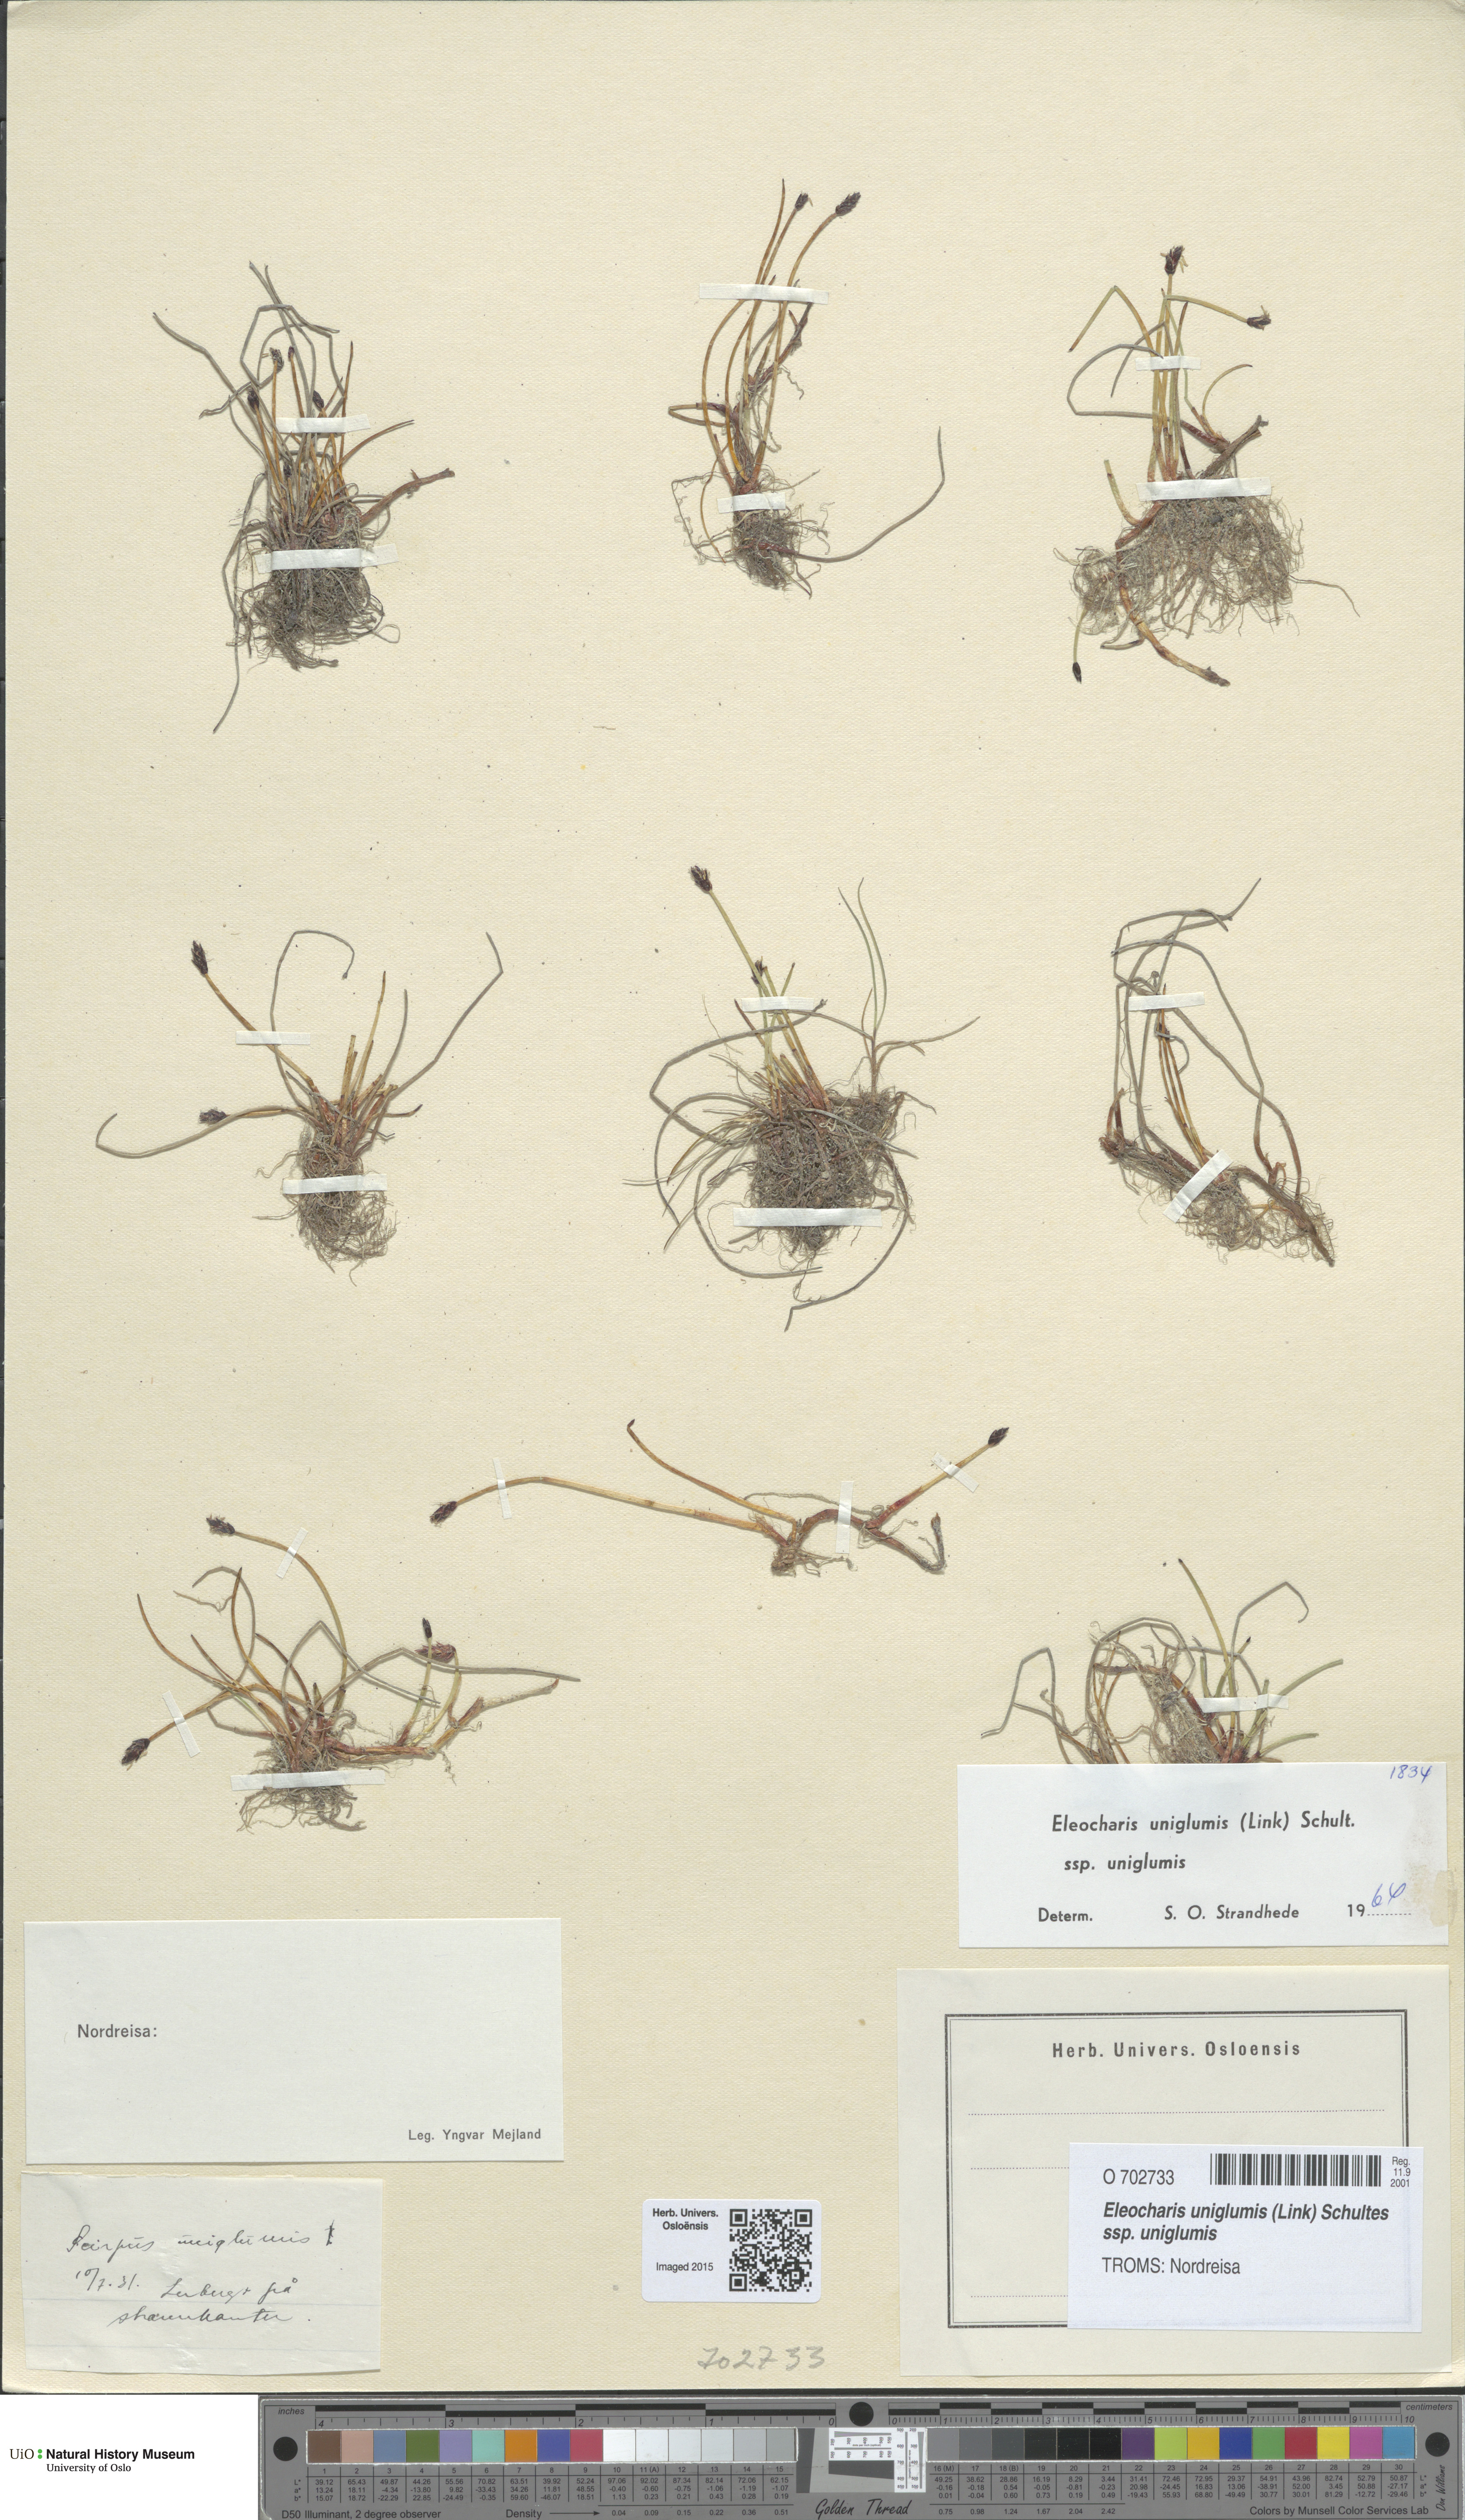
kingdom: Plantae
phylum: Tracheophyta
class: Liliopsida
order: Poales
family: Cyperaceae
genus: Eleocharis
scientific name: Eleocharis uniglumis
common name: Slender spike-rush
